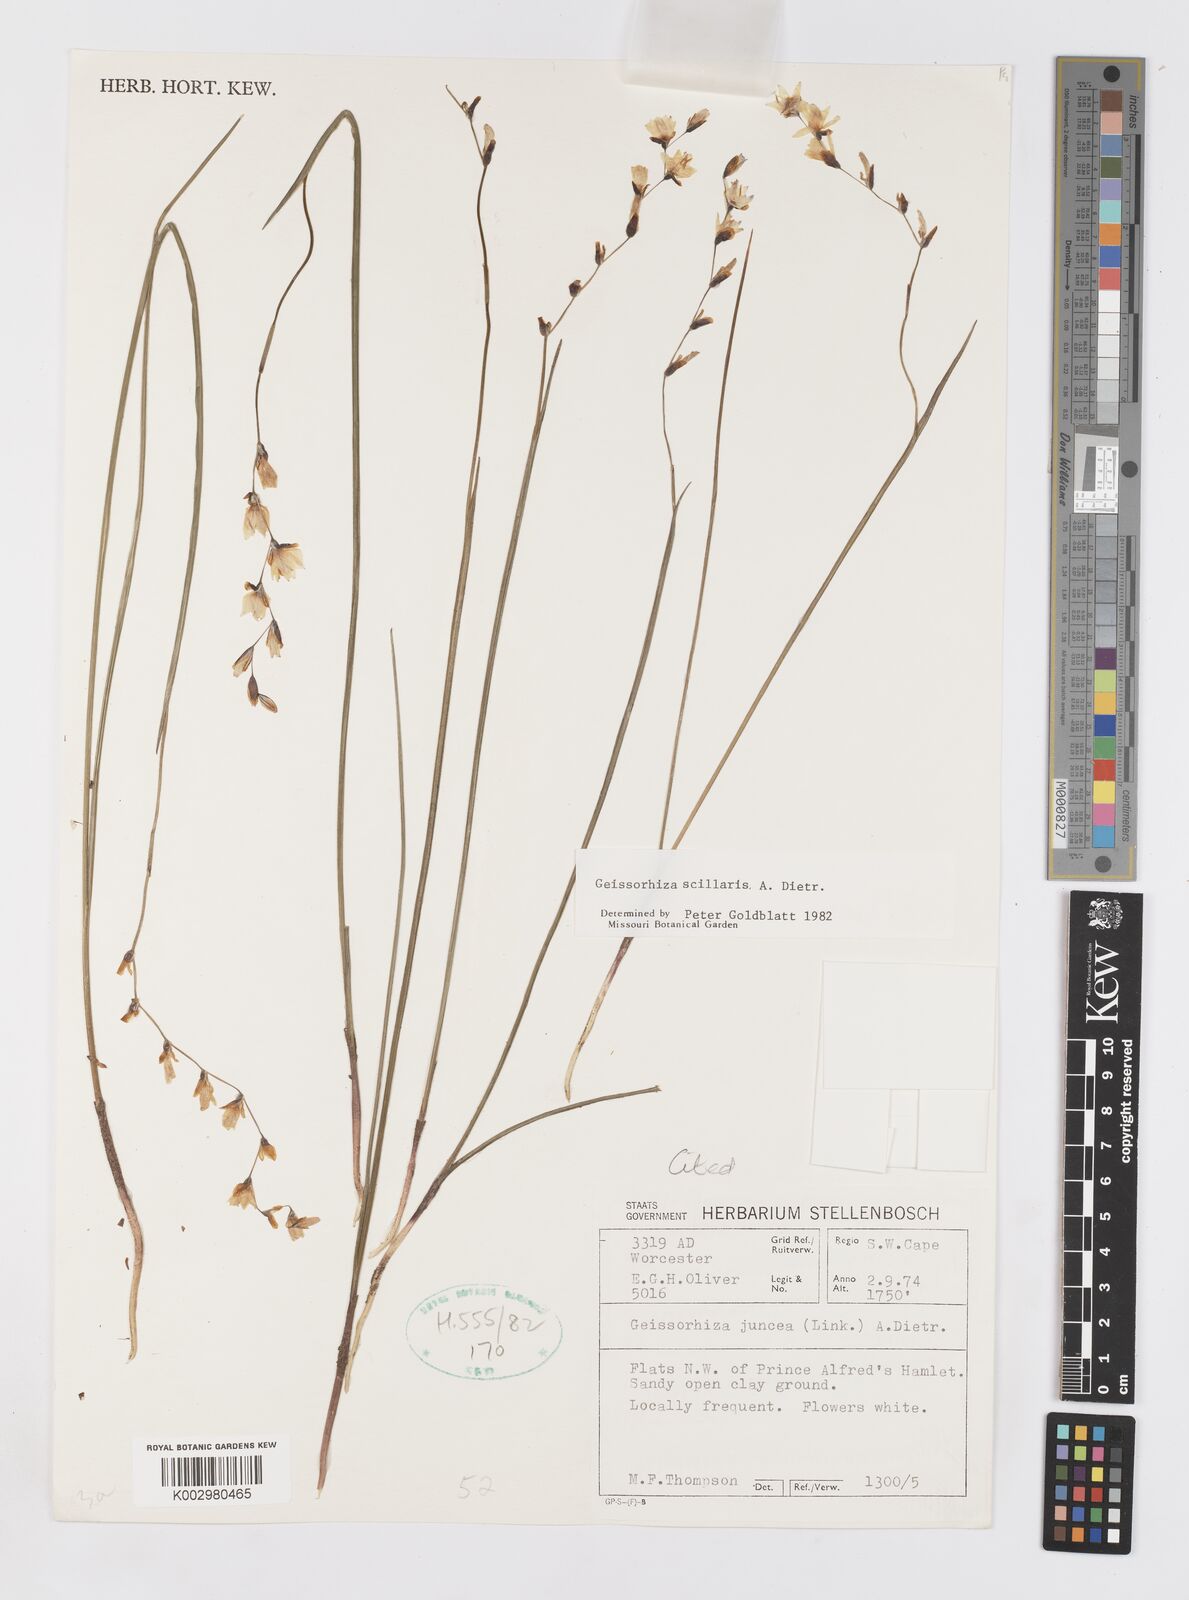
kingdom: Plantae
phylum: Tracheophyta
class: Liliopsida
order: Asparagales
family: Iridaceae
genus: Geissorhiza
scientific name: Geissorhiza scillaris
